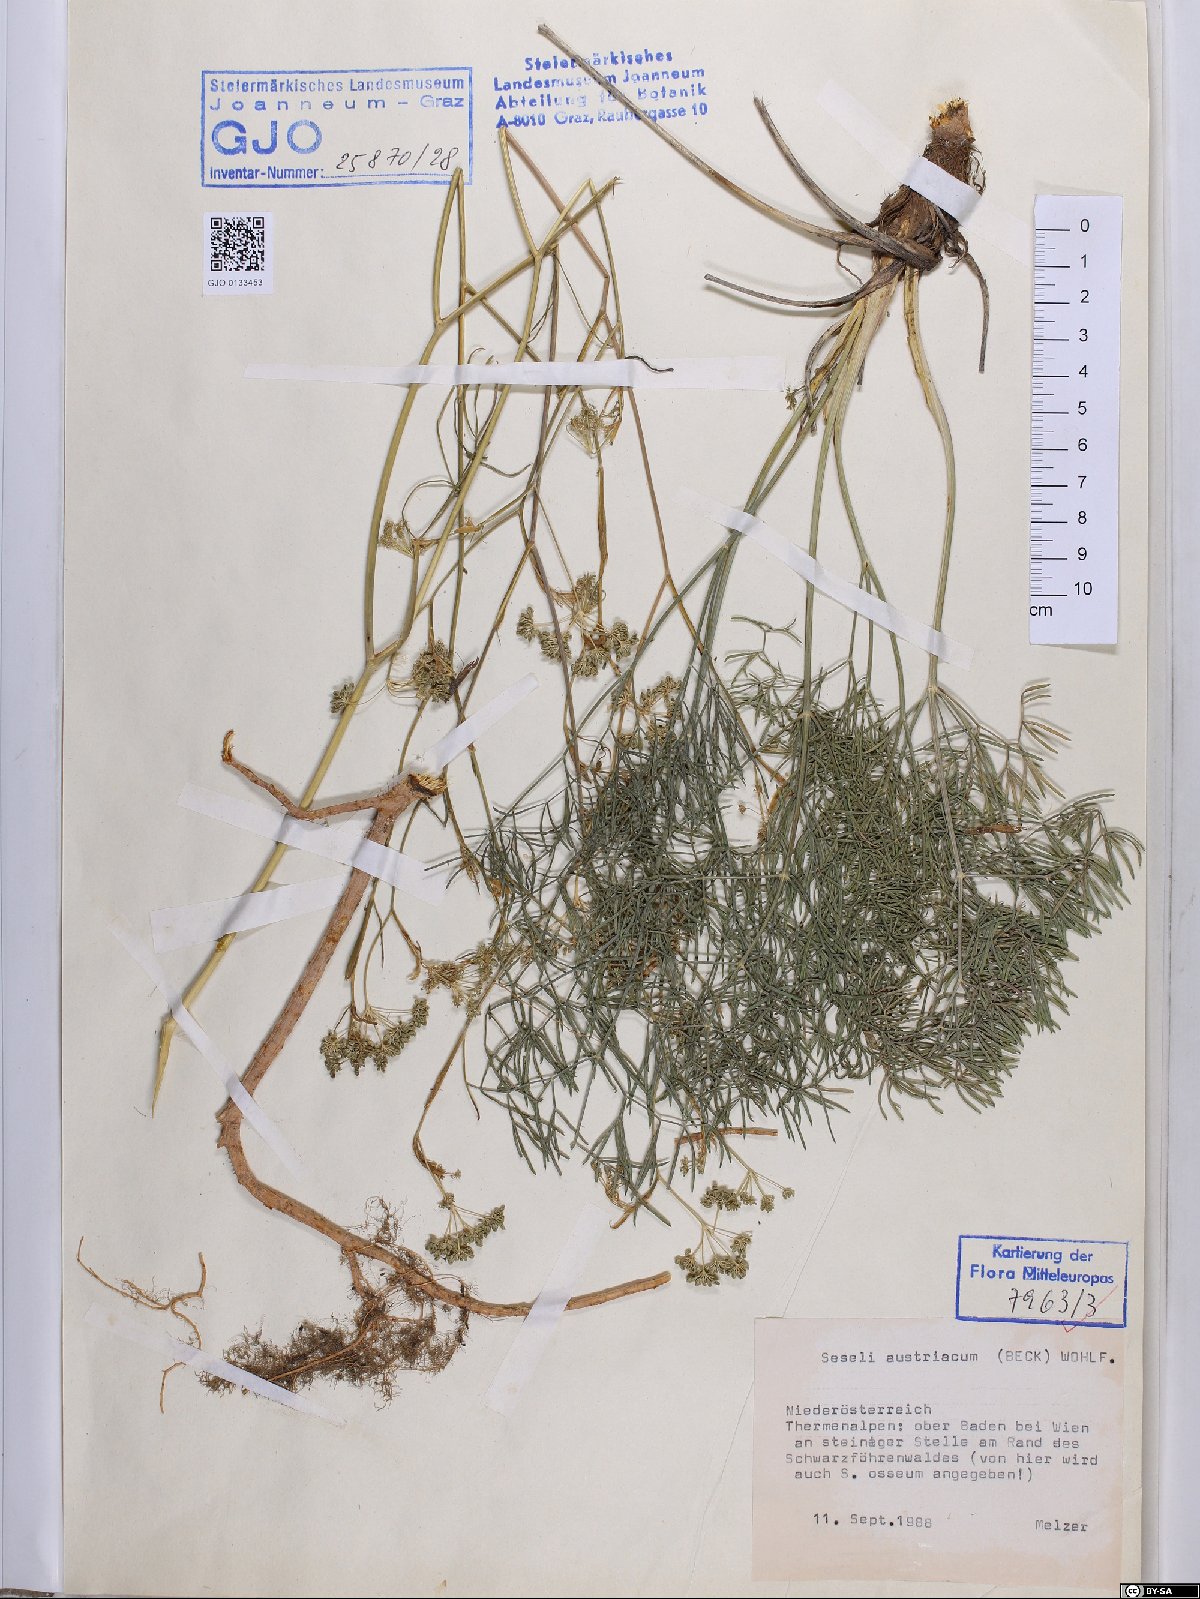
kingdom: Plantae
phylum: Tracheophyta
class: Magnoliopsida
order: Apiales
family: Apiaceae
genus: Seseli
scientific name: Seseli austriacum
